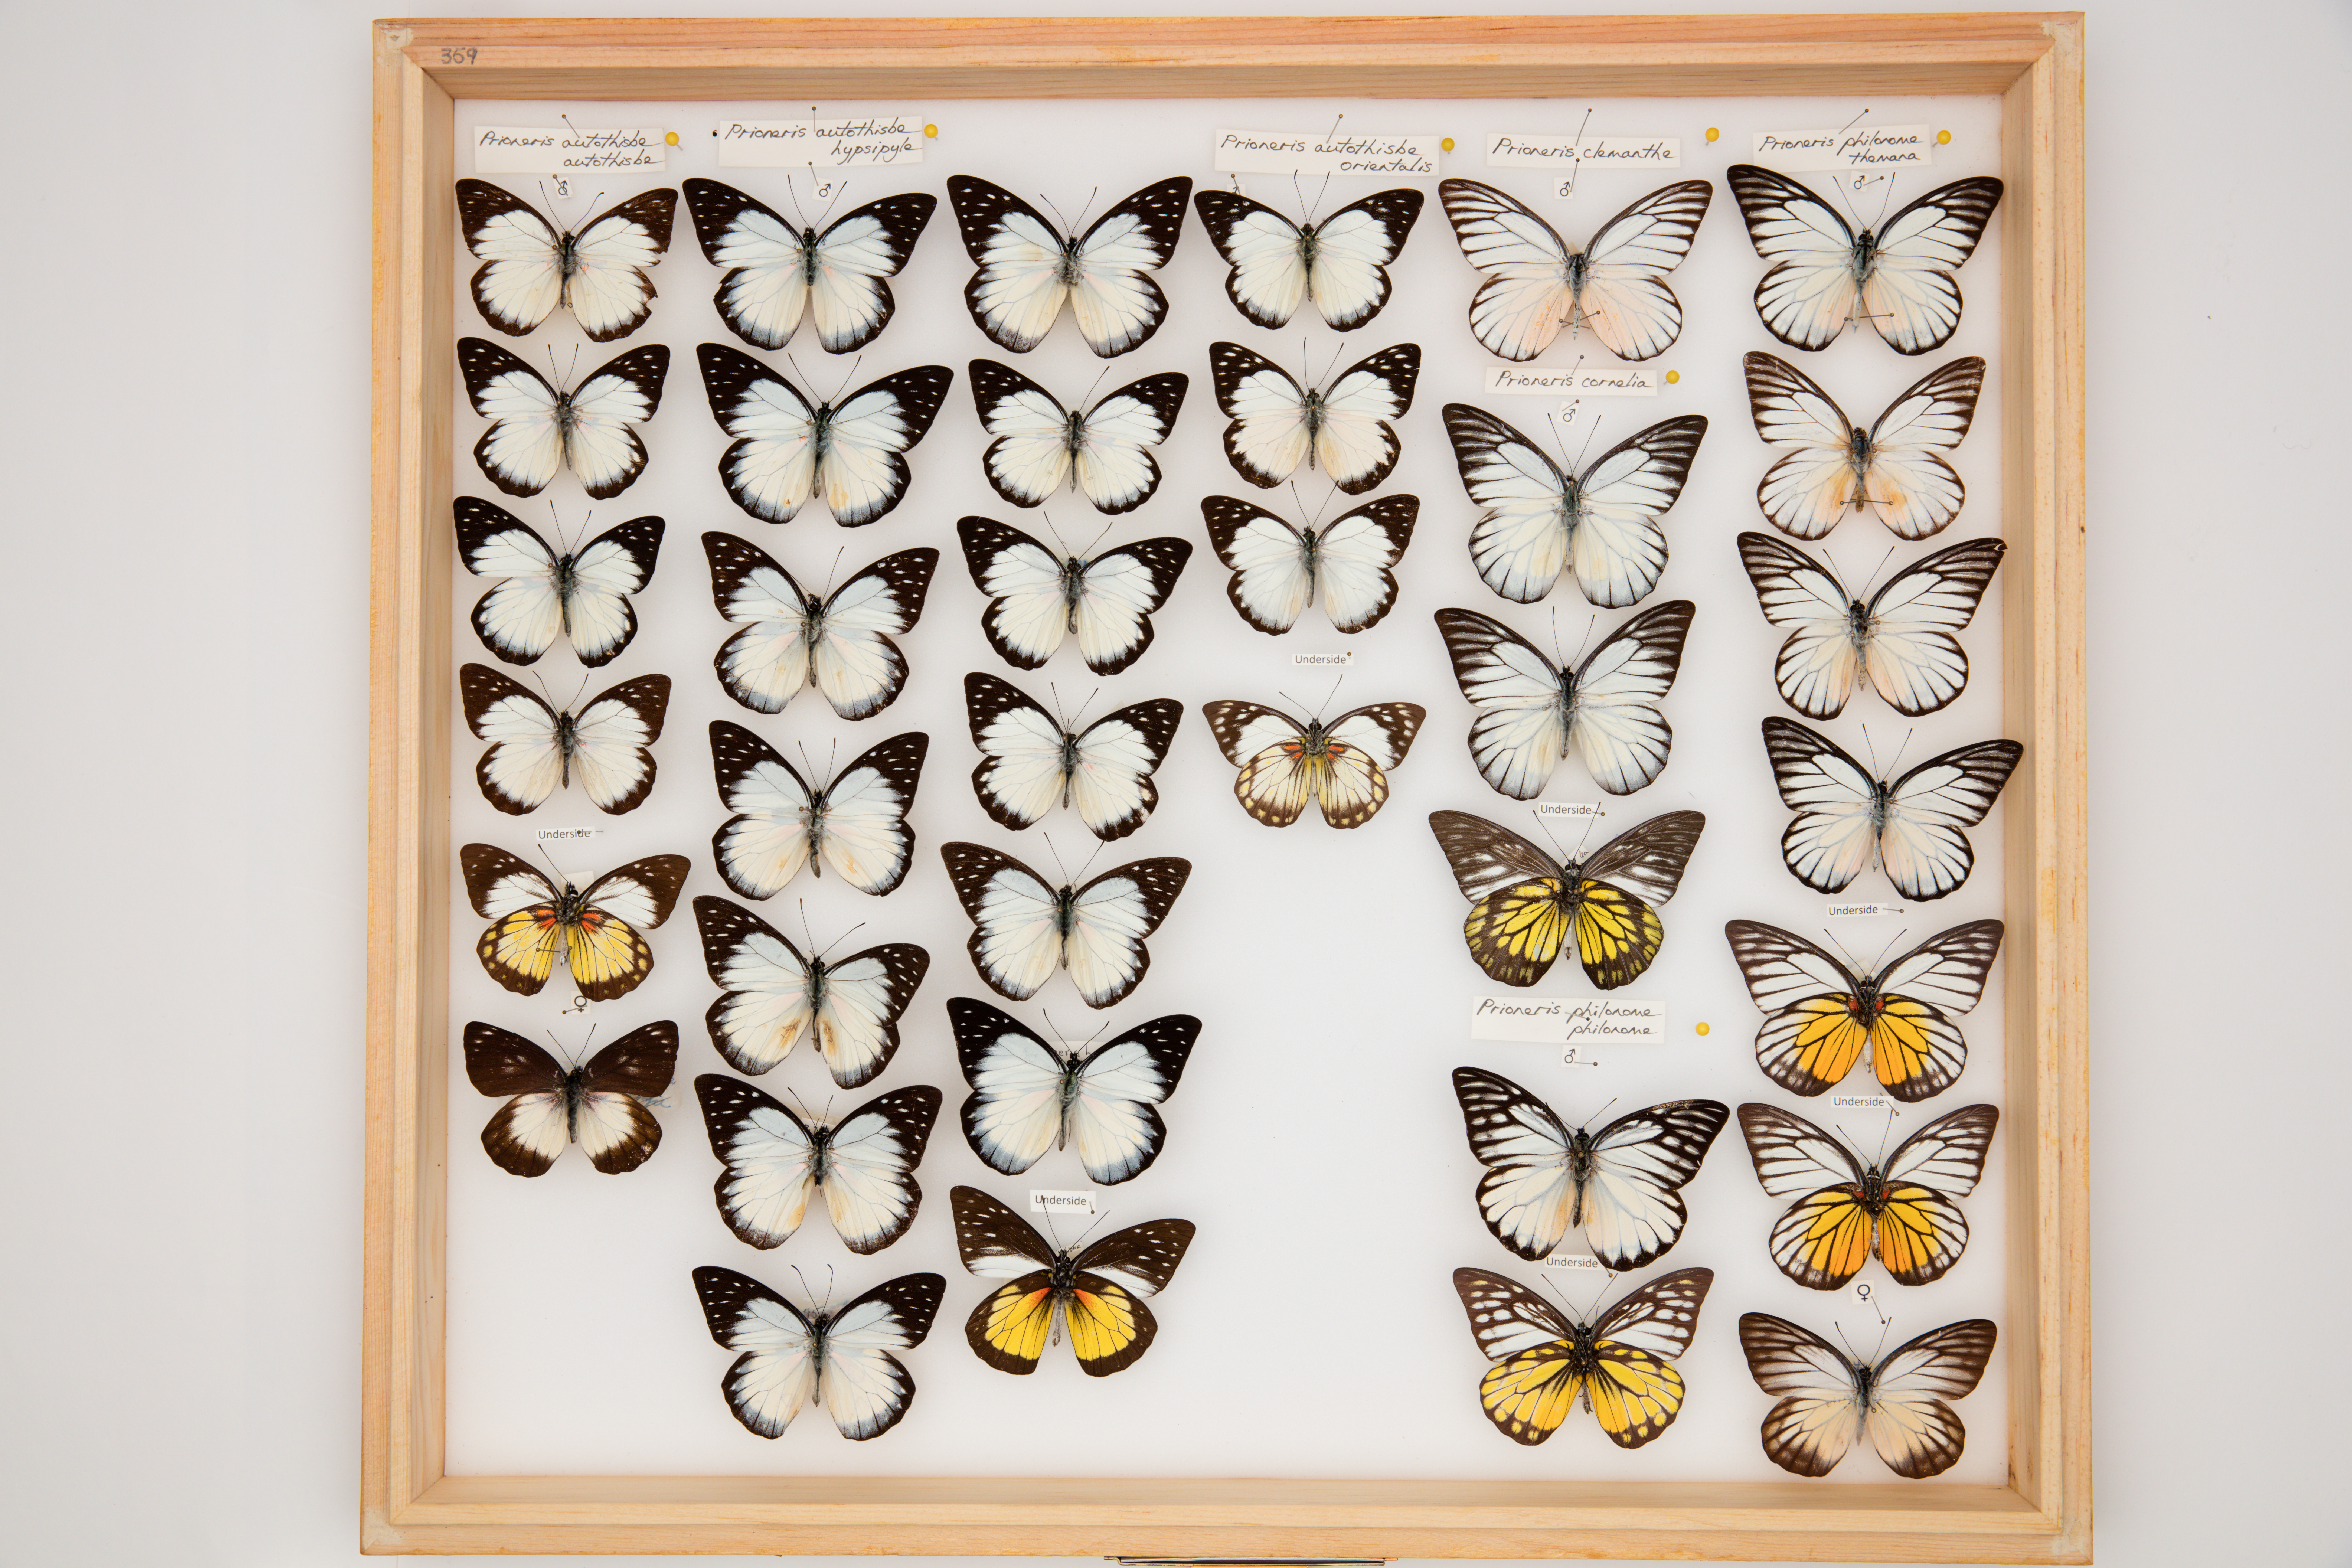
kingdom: Animalia
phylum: Arthropoda
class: Insecta
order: Lepidoptera
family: Pieridae
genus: Prioneris
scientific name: Prioneris autothisbe
